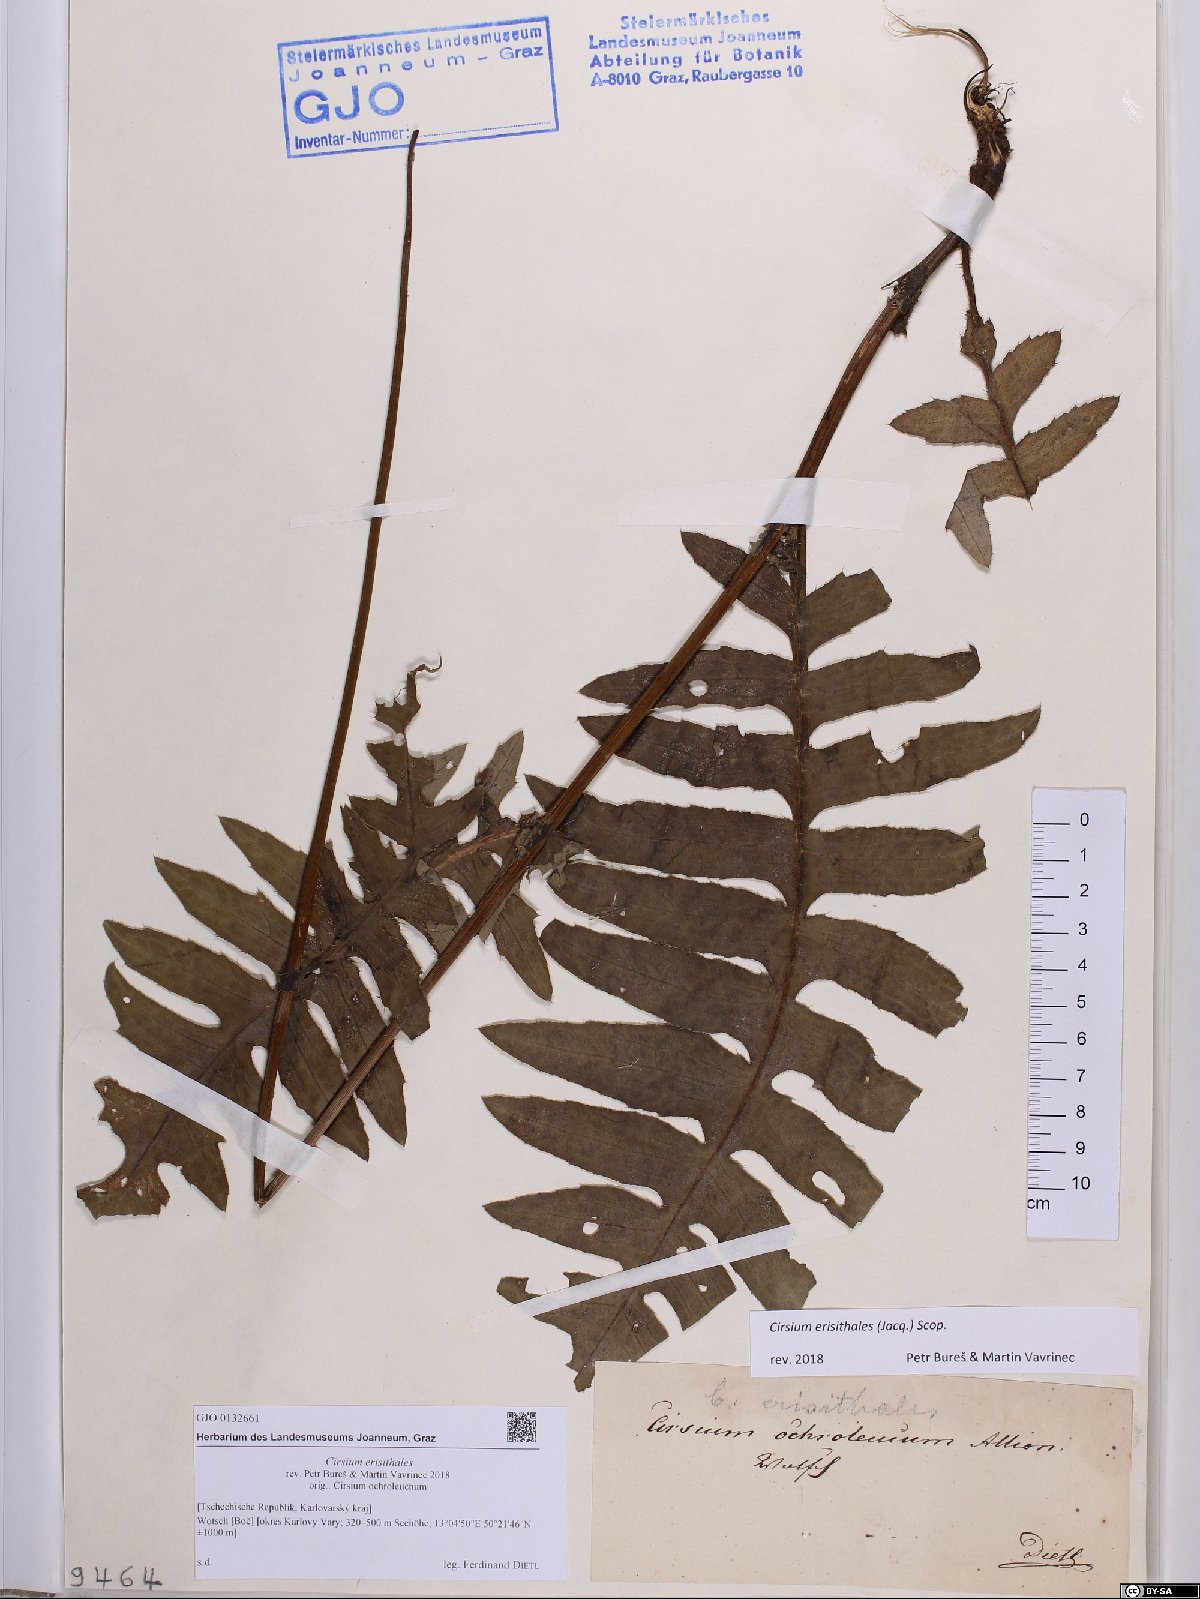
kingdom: Plantae
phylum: Tracheophyta
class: Magnoliopsida
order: Asterales
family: Asteraceae
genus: Cirsium
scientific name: Cirsium erisithales
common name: Yellow thistle
